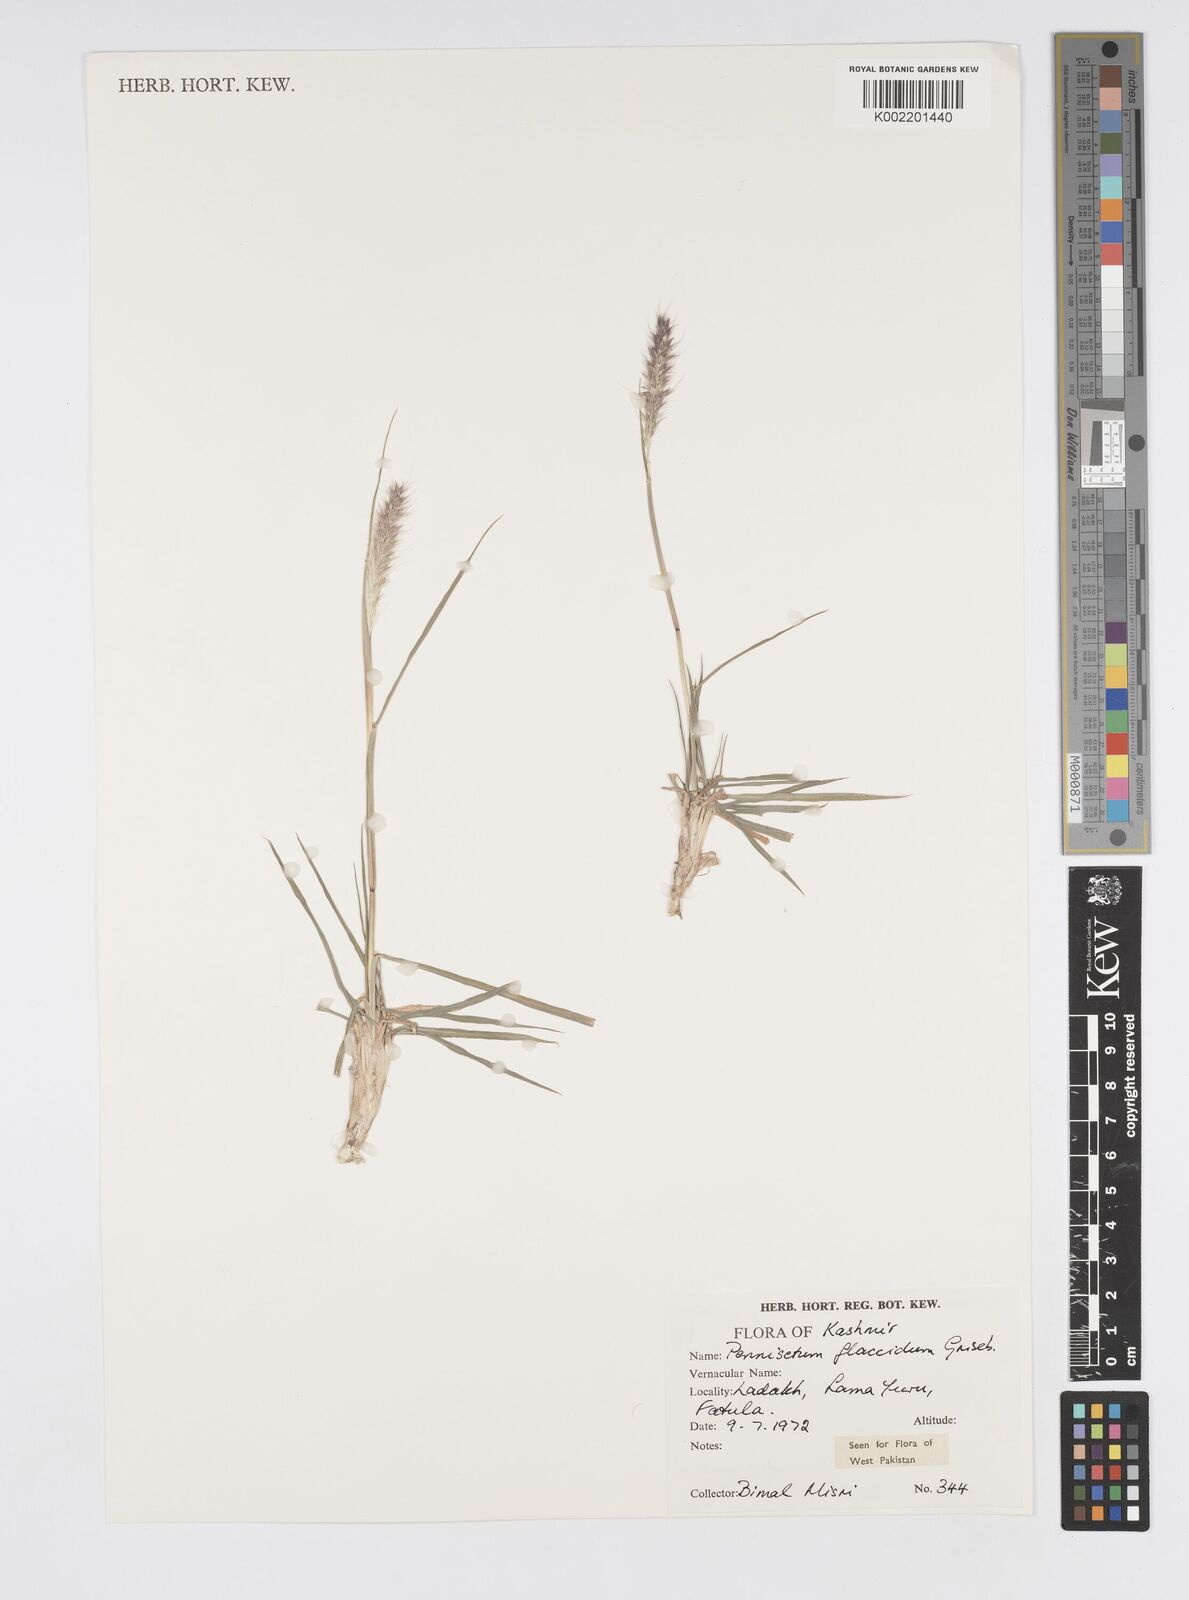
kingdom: Plantae
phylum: Tracheophyta
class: Liliopsida
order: Poales
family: Poaceae
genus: Cenchrus
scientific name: Cenchrus flaccidus
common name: Flaccid grass
